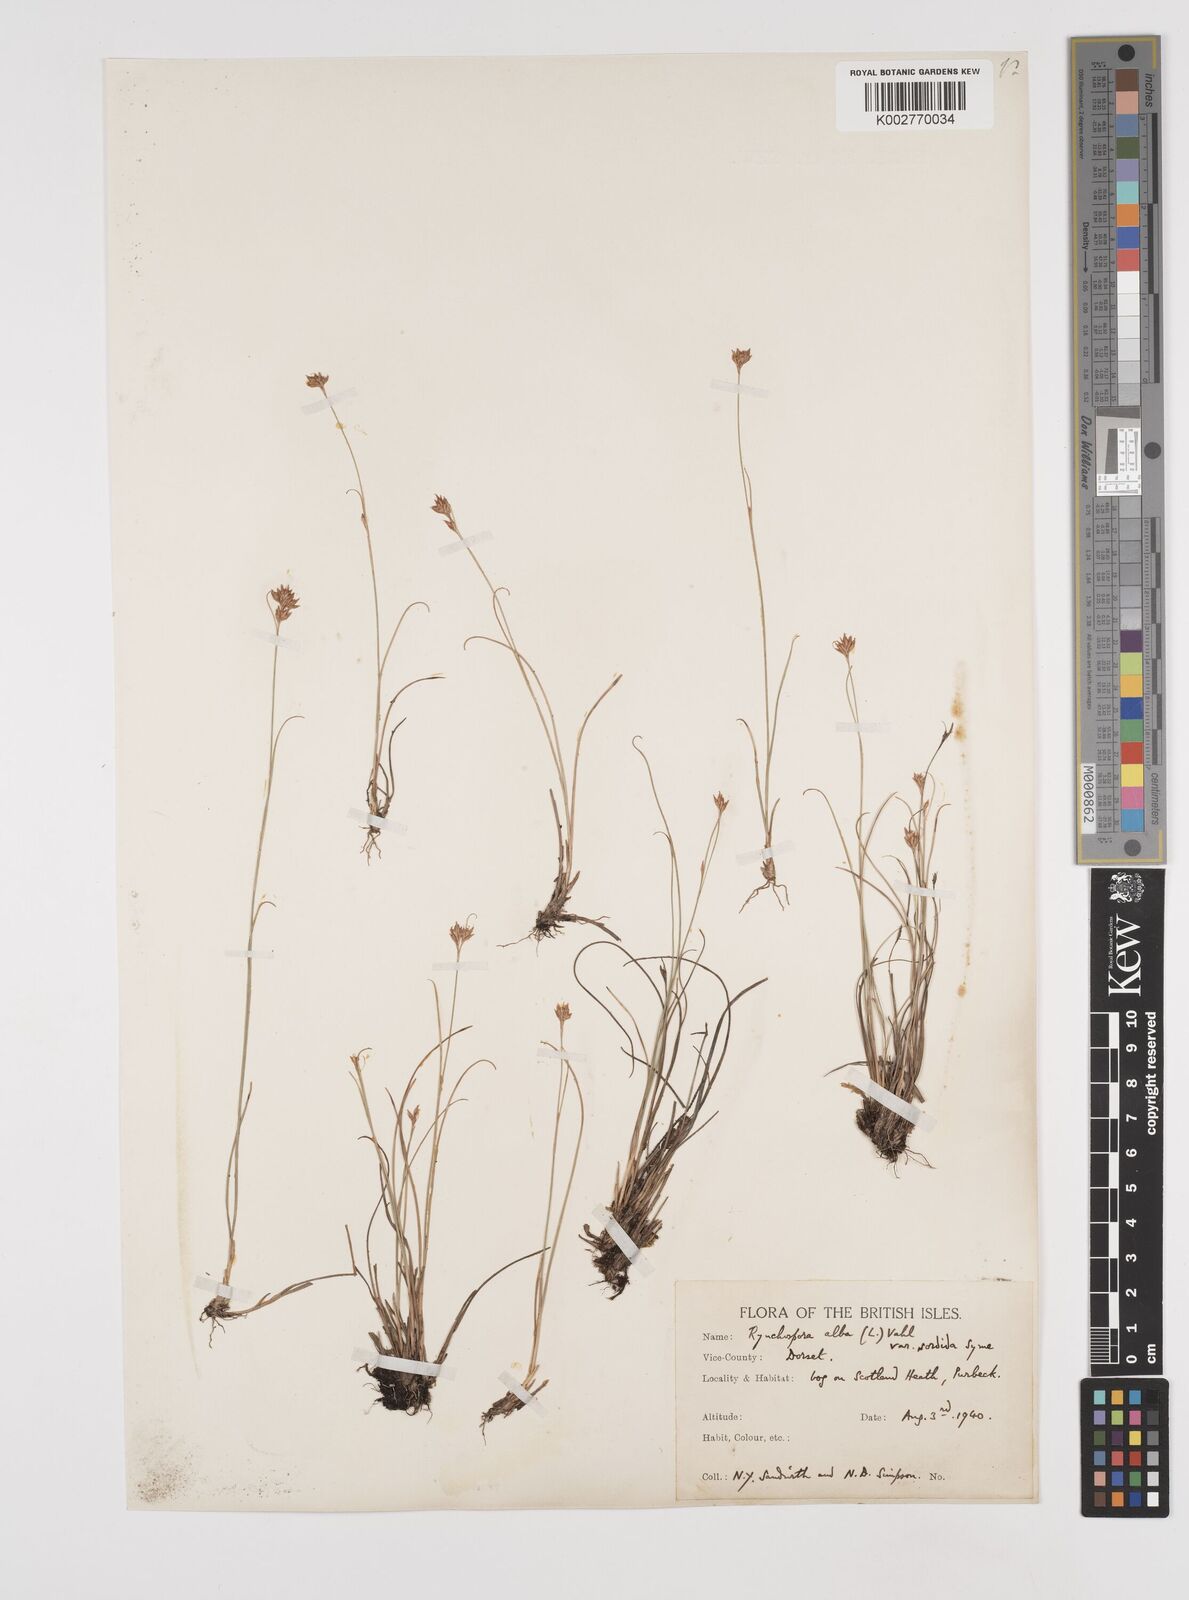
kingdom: Plantae
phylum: Tracheophyta
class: Liliopsida
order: Poales
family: Cyperaceae
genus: Rhynchospora
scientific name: Rhynchospora alba
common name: White beak-sedge
